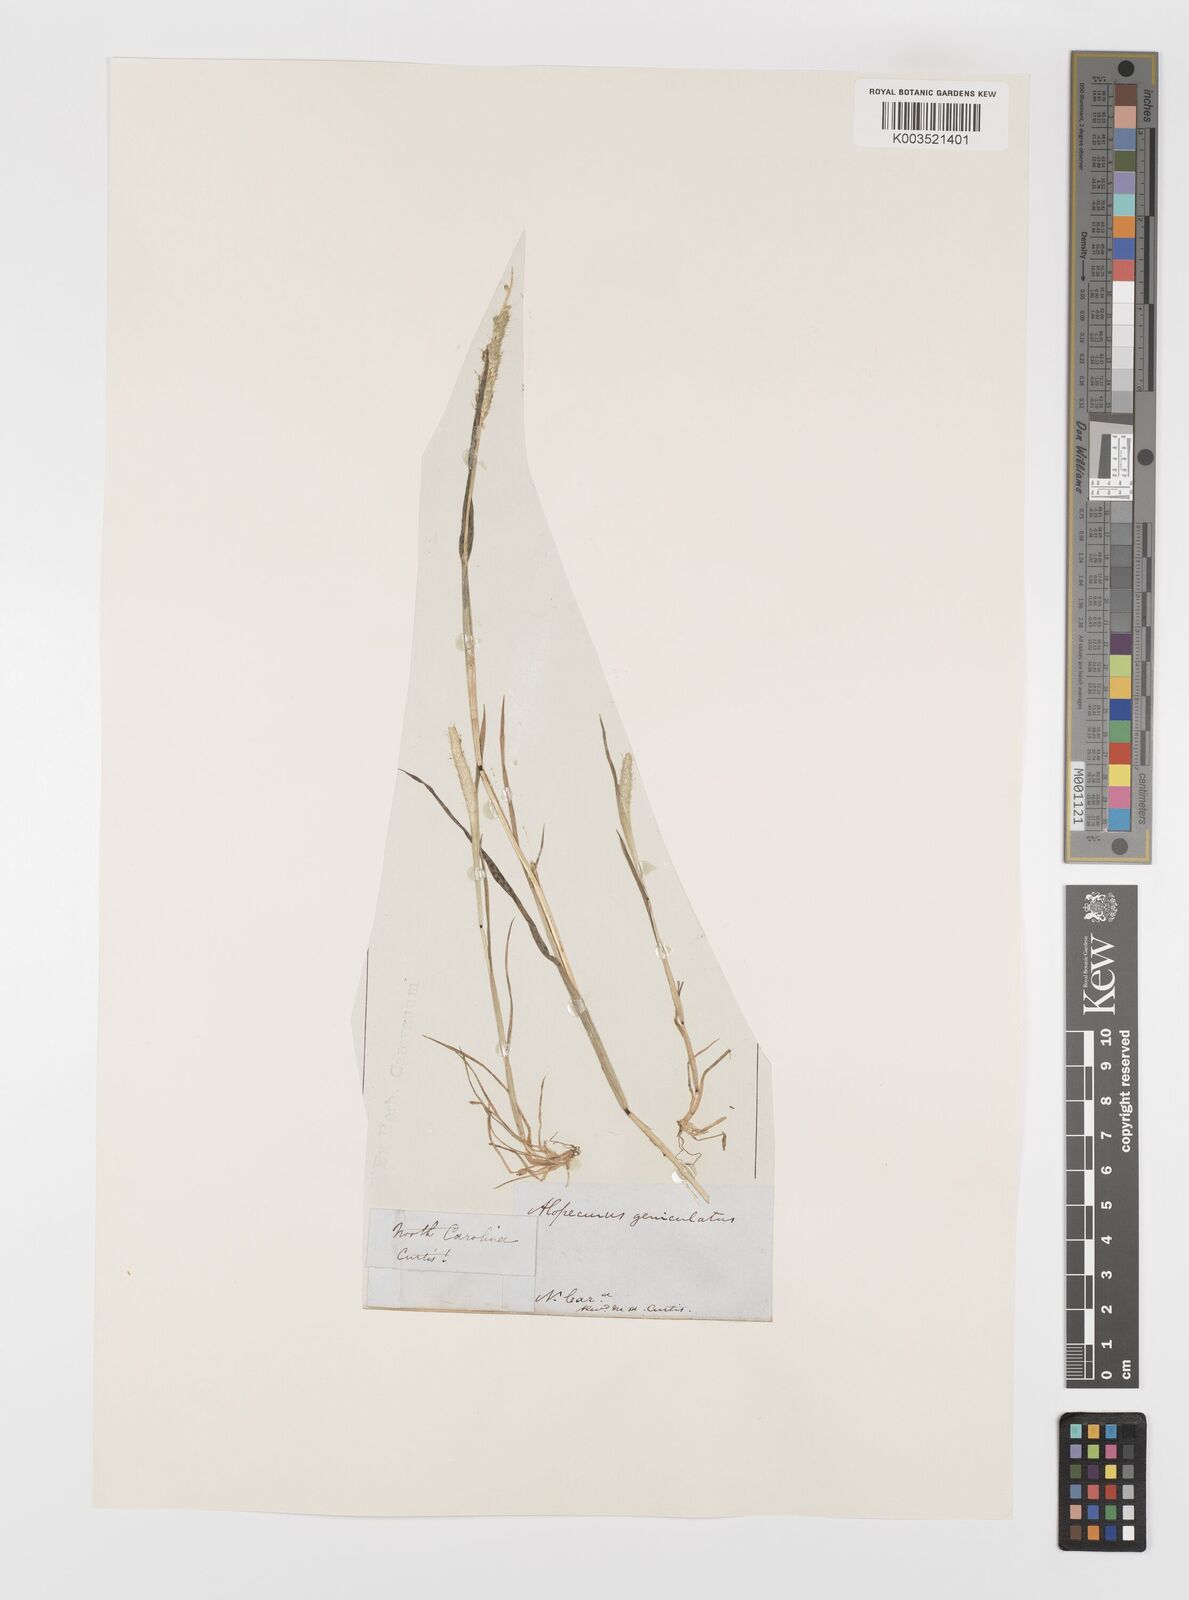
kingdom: Plantae
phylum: Tracheophyta
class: Liliopsida
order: Poales
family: Poaceae
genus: Alopecurus
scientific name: Alopecurus geniculatus
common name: Water foxtail
